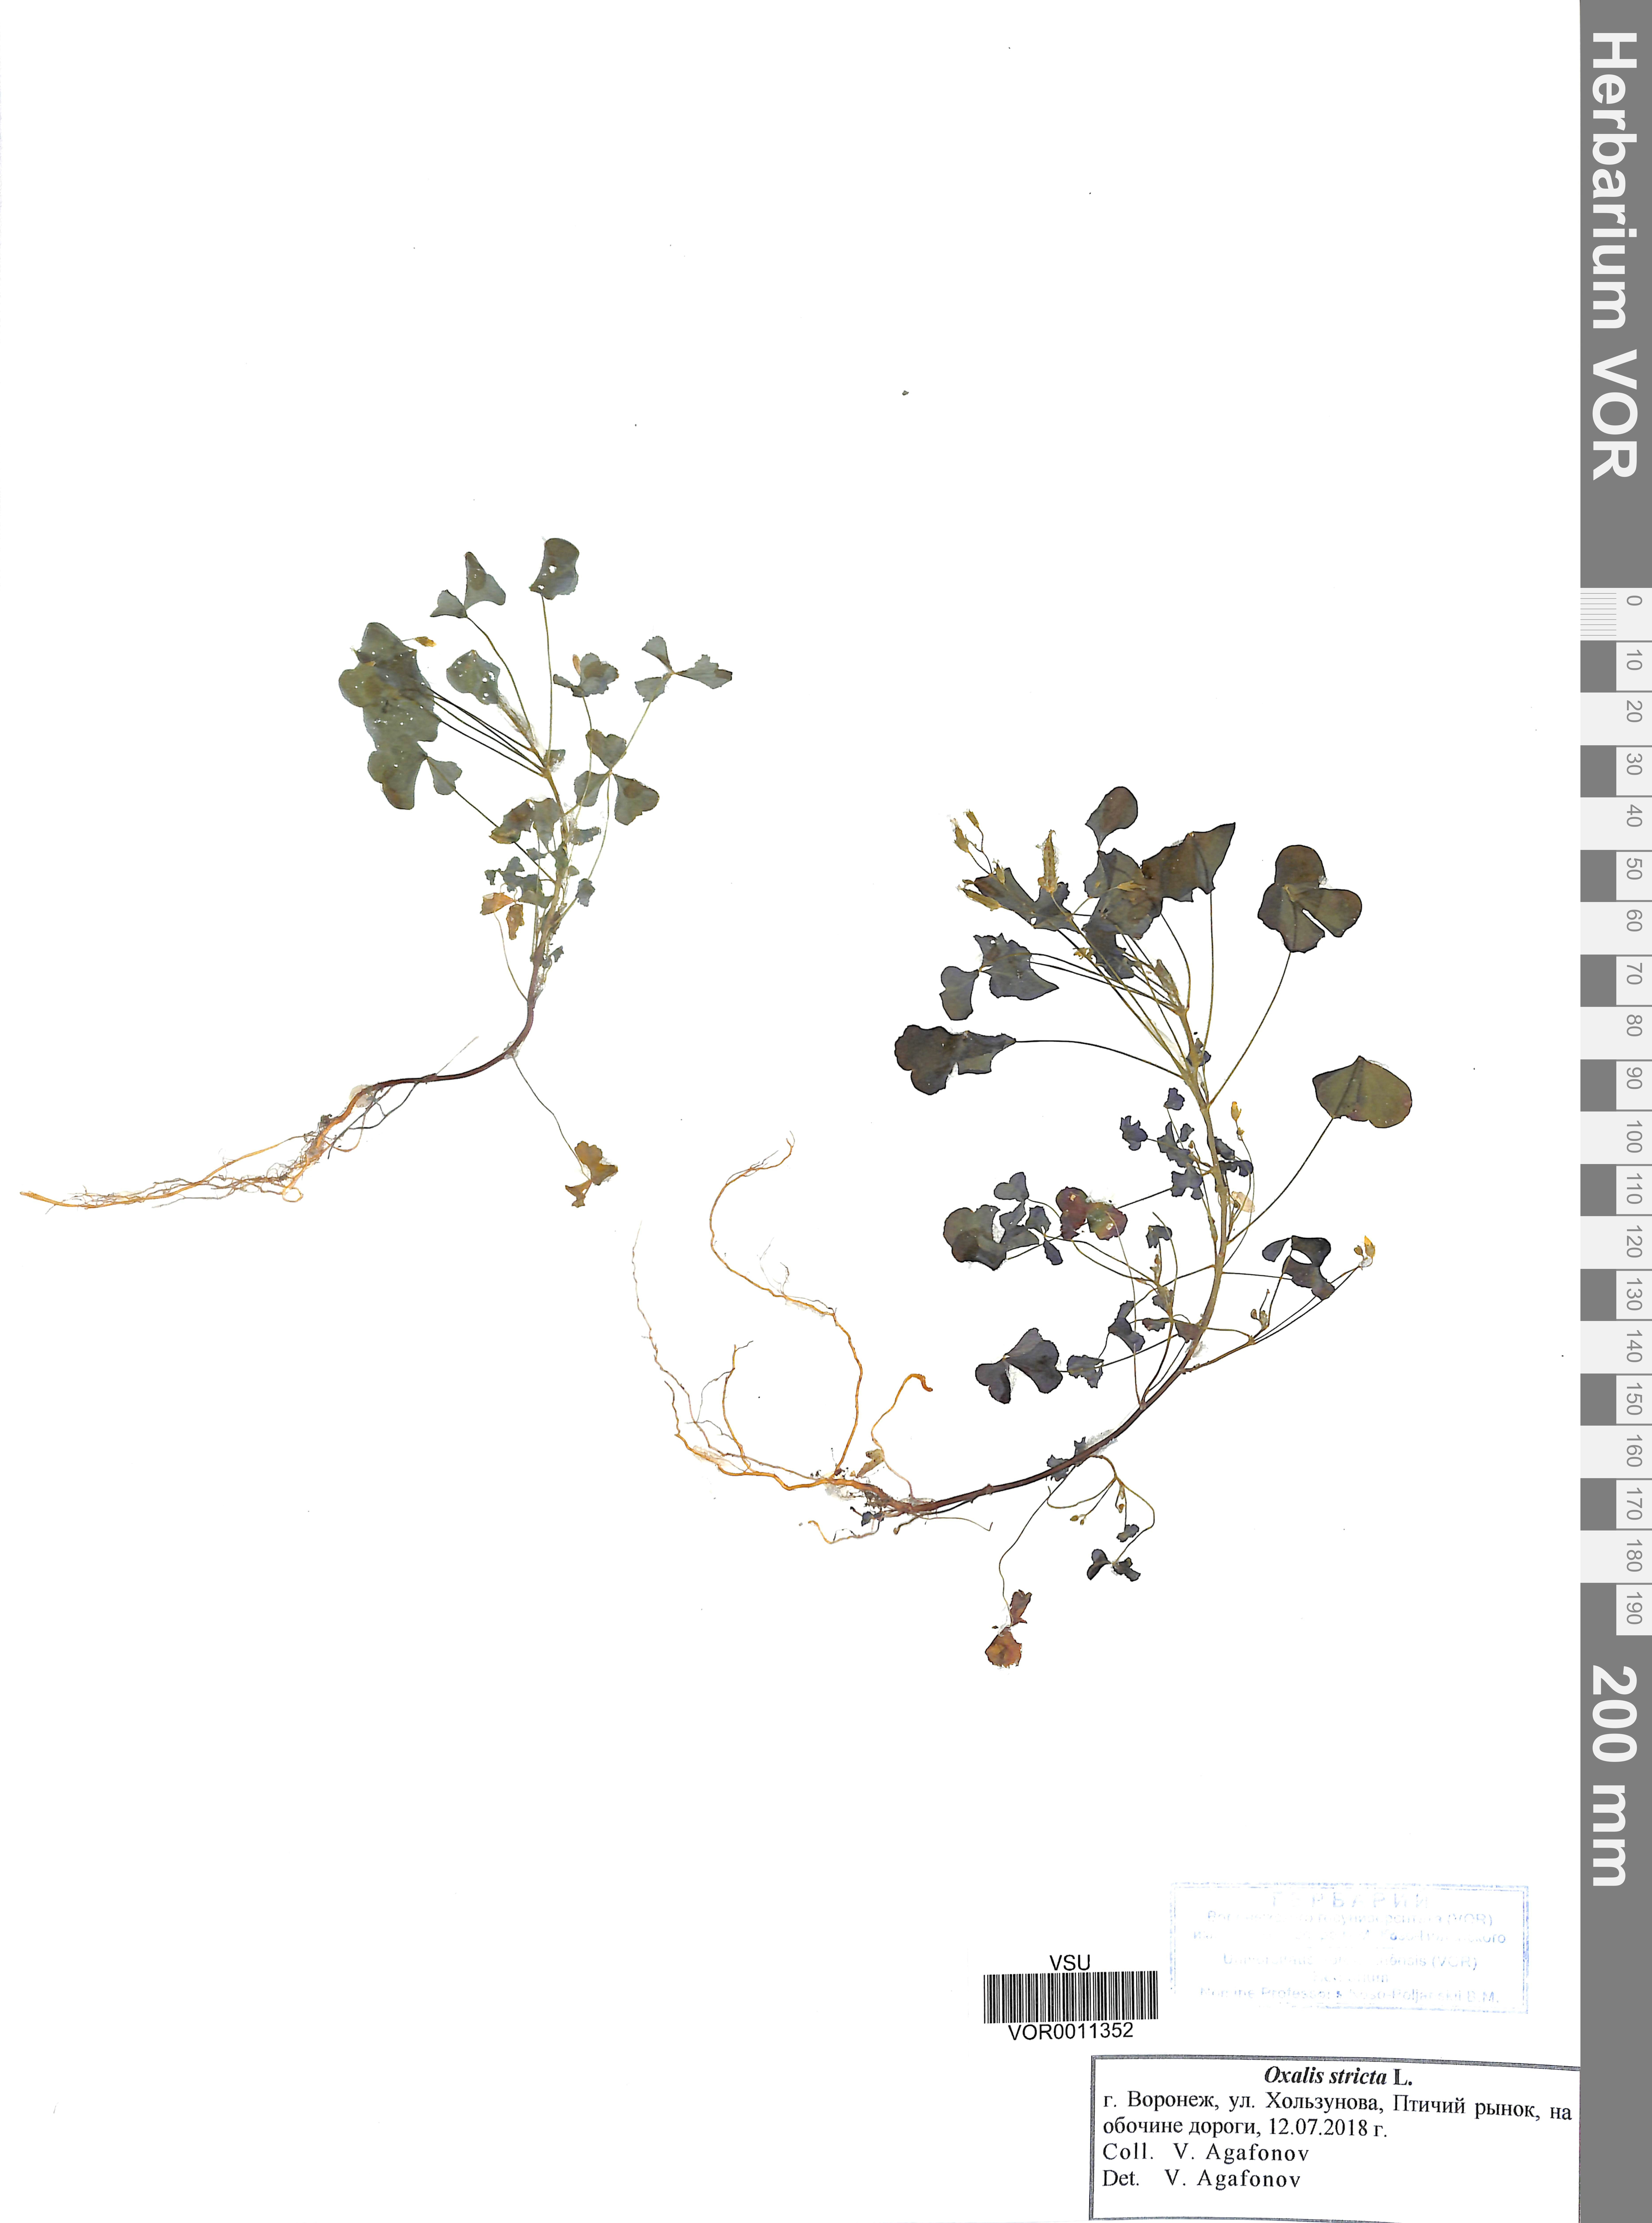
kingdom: Plantae
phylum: Tracheophyta
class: Magnoliopsida
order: Oxalidales
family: Oxalidaceae
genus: Oxalis
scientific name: Oxalis stricta
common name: Upright yellow-sorrel
